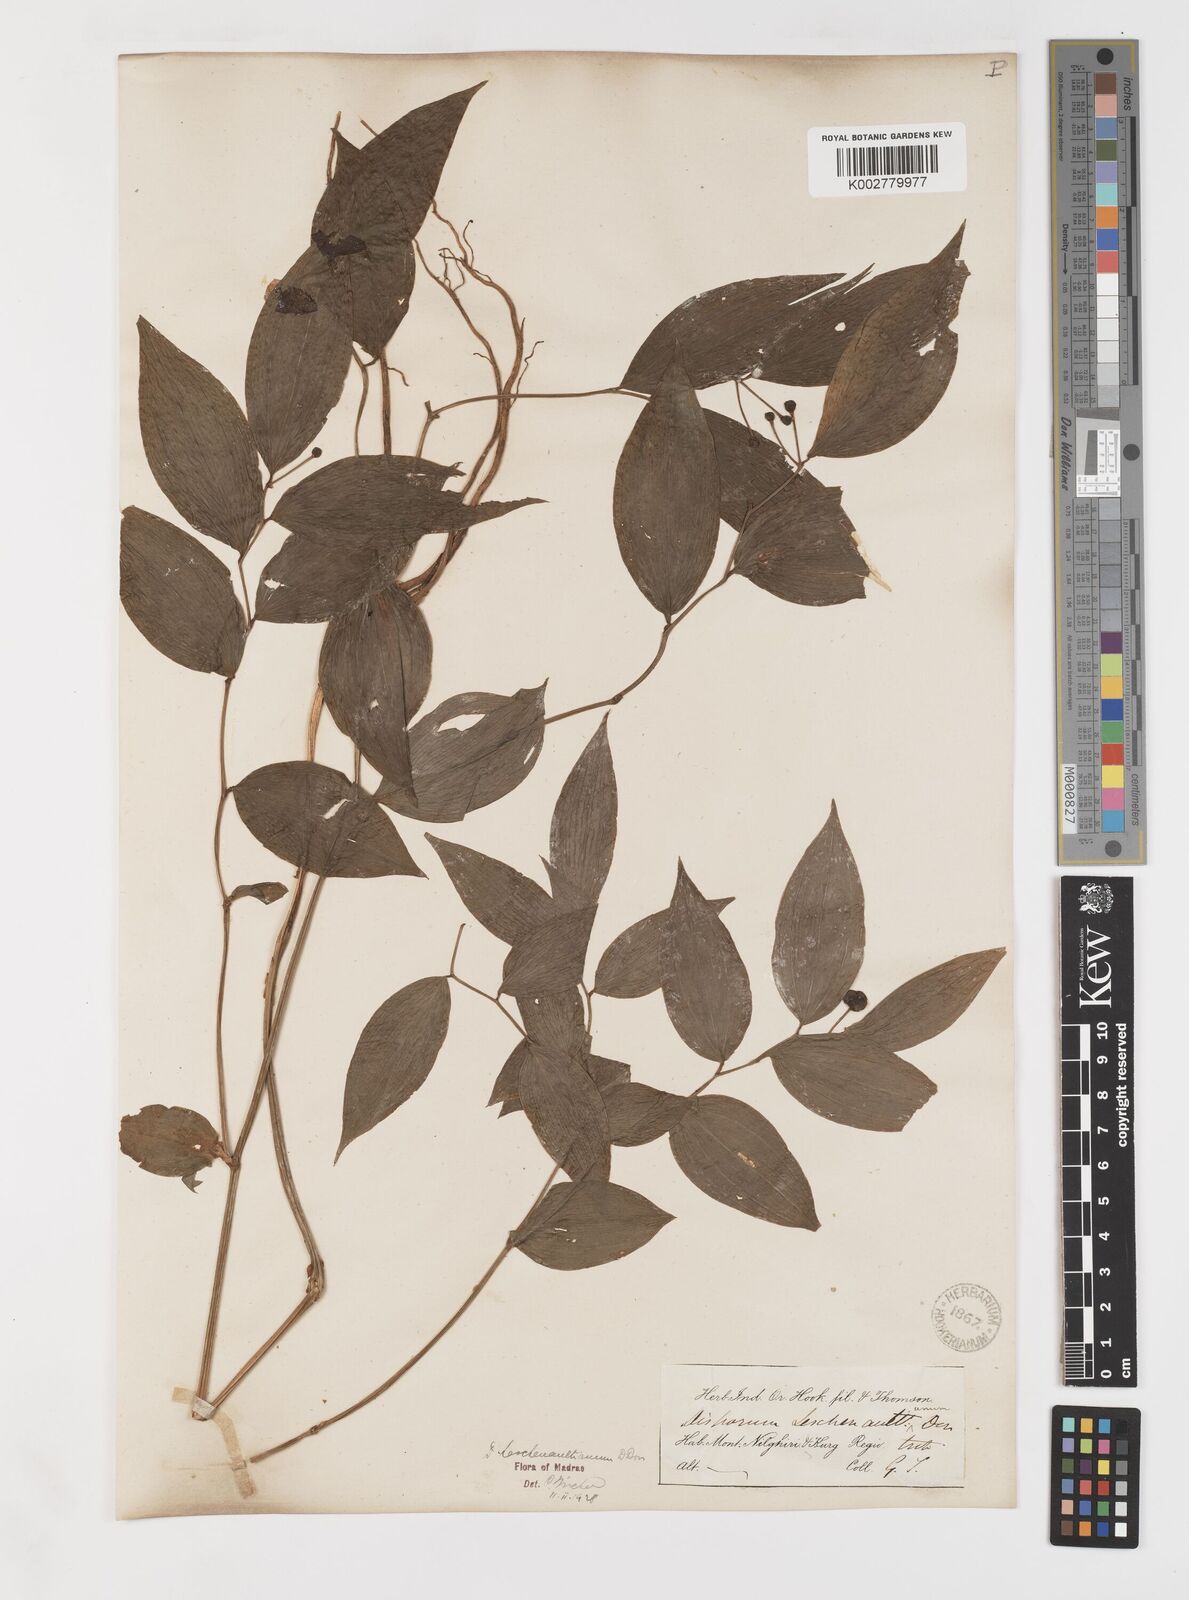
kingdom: Plantae
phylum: Tracheophyta
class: Liliopsida
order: Liliales
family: Colchicaceae
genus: Disporum
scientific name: Disporum cantoniense
